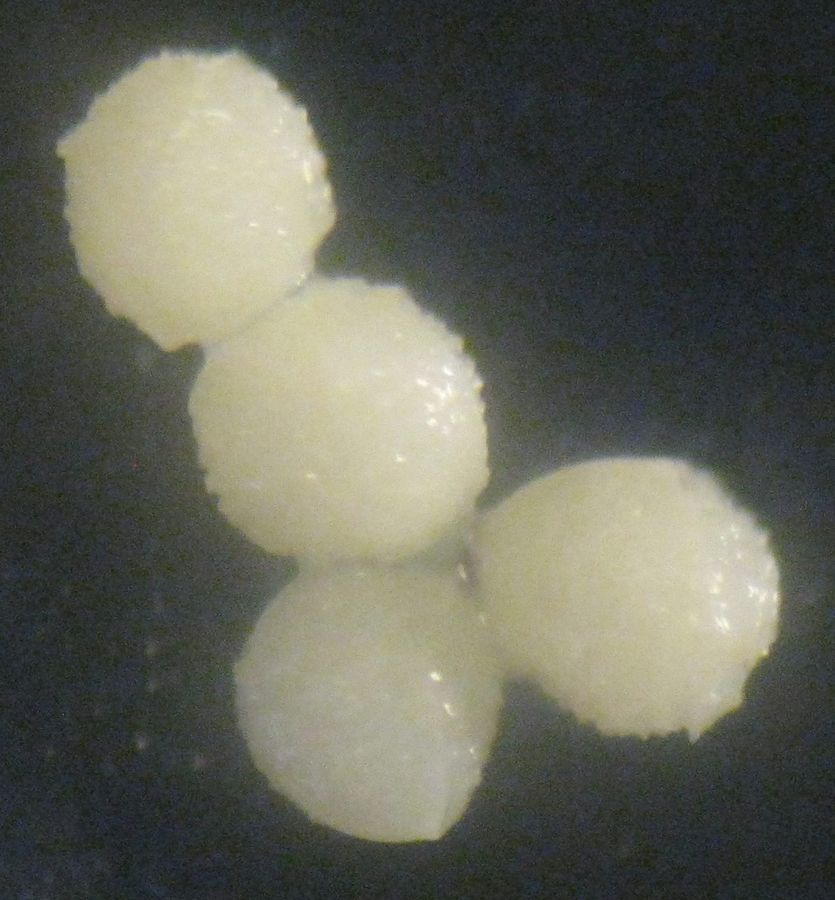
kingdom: Plantae
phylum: Tracheophyta
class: Lycopodiopsida
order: Isoetales
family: Isoetaceae
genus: Isoetes
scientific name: Isoetes lacustris
